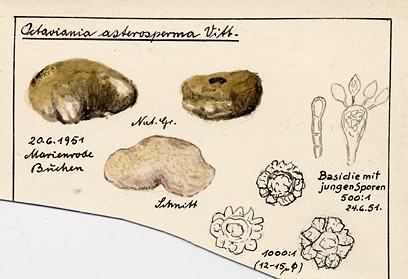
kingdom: Fungi
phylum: Basidiomycota
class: Agaricomycetes
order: Boletales
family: Boletaceae
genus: Octaviania
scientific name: Octaviania asterosperma
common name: Chalky false truffle
